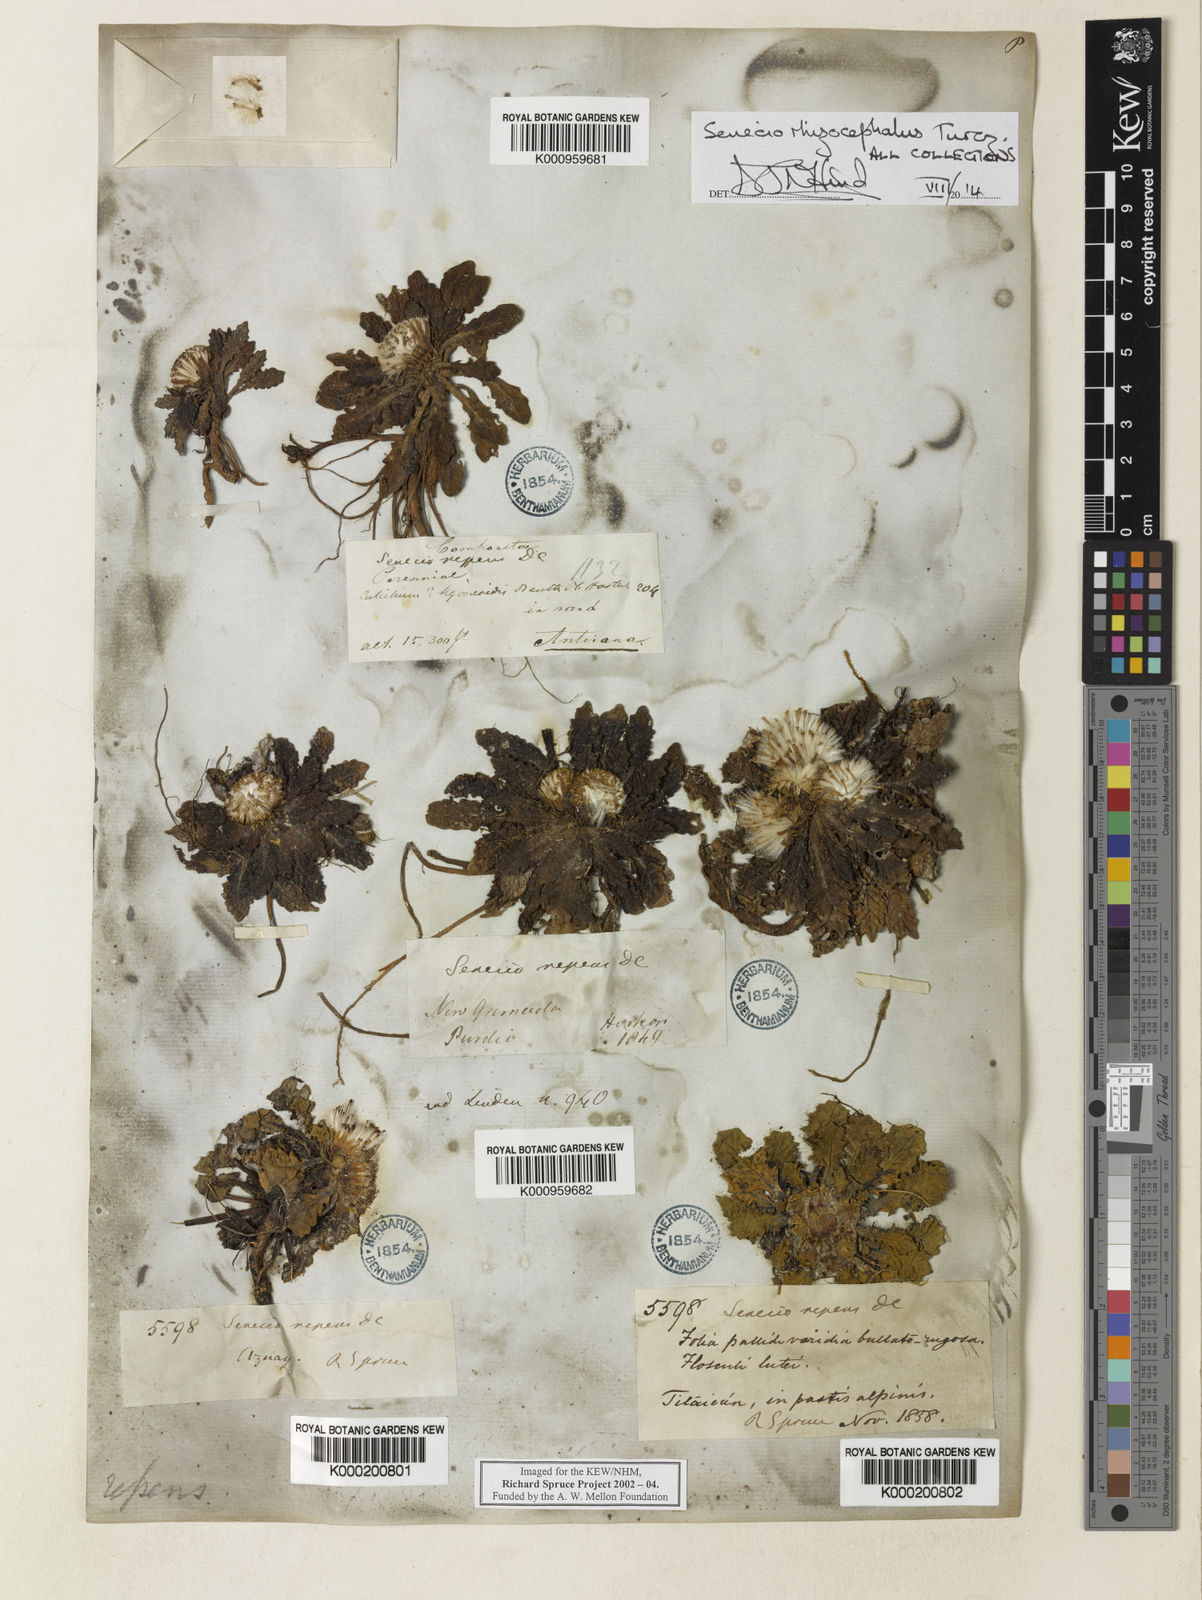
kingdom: Plantae
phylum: Tracheophyta
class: Magnoliopsida
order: Asterales
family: Asteraceae
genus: Senecio
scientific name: Senecio rhizocephalus
